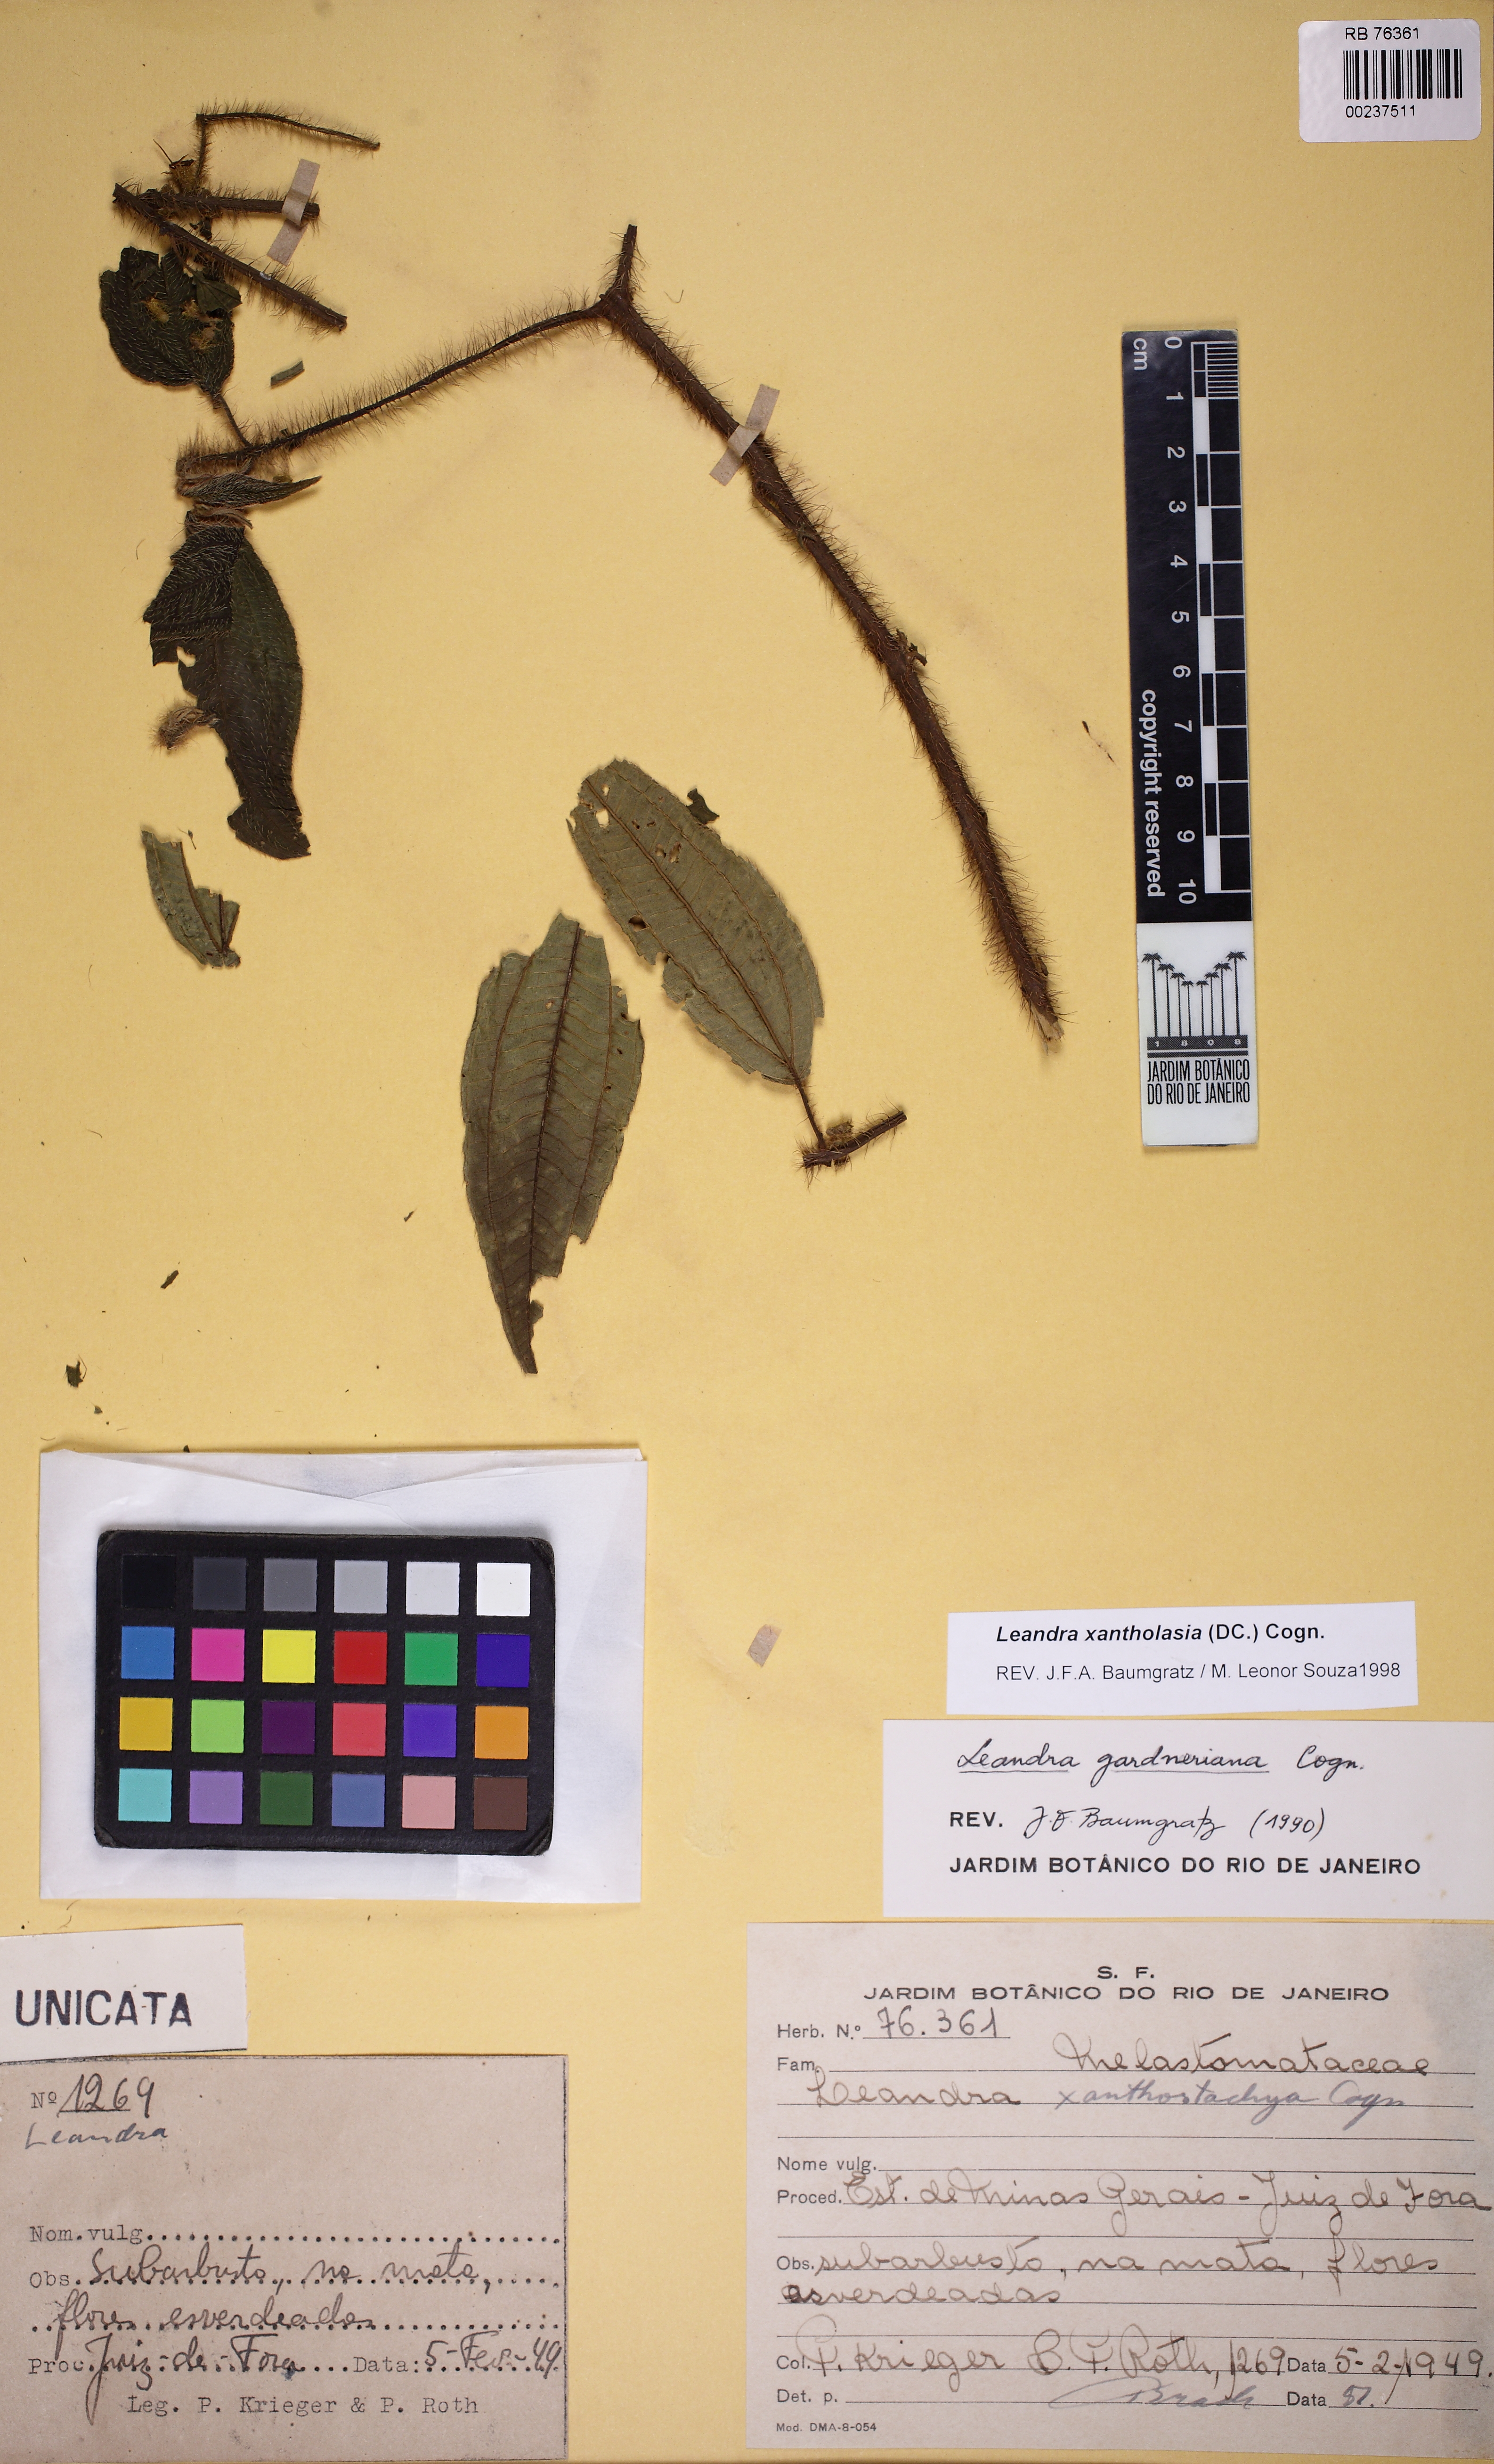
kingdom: Plantae
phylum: Tracheophyta
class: Magnoliopsida
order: Myrtales
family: Melastomataceae
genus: Miconia
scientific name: Miconia xantholasia
